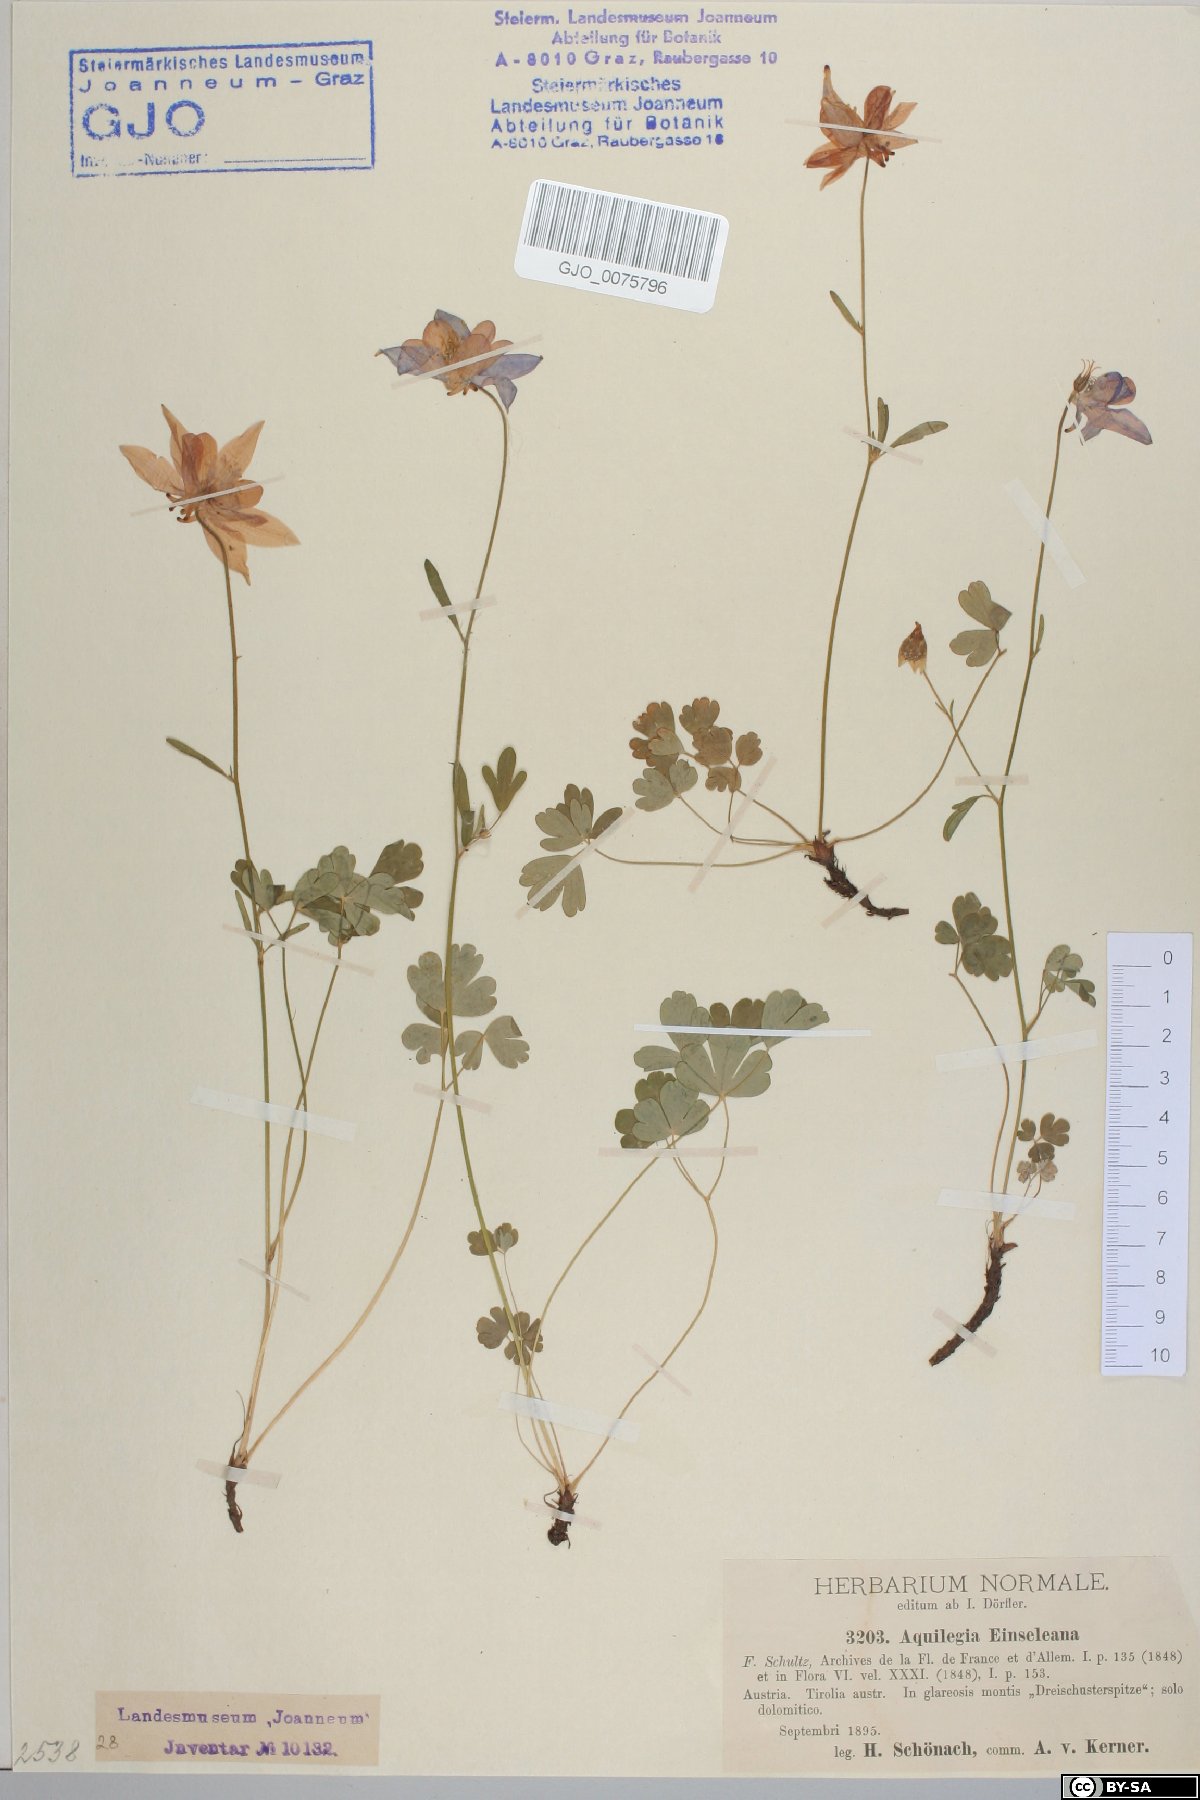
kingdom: Plantae
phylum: Tracheophyta
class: Magnoliopsida
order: Ranunculales
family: Ranunculaceae
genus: Aquilegia
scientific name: Aquilegia einseleana
